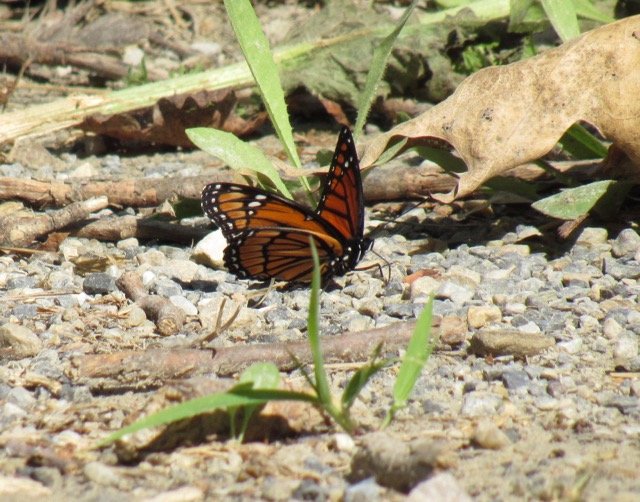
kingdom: Animalia
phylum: Arthropoda
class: Insecta
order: Lepidoptera
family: Nymphalidae
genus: Limenitis
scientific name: Limenitis archippus
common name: Viceroy
